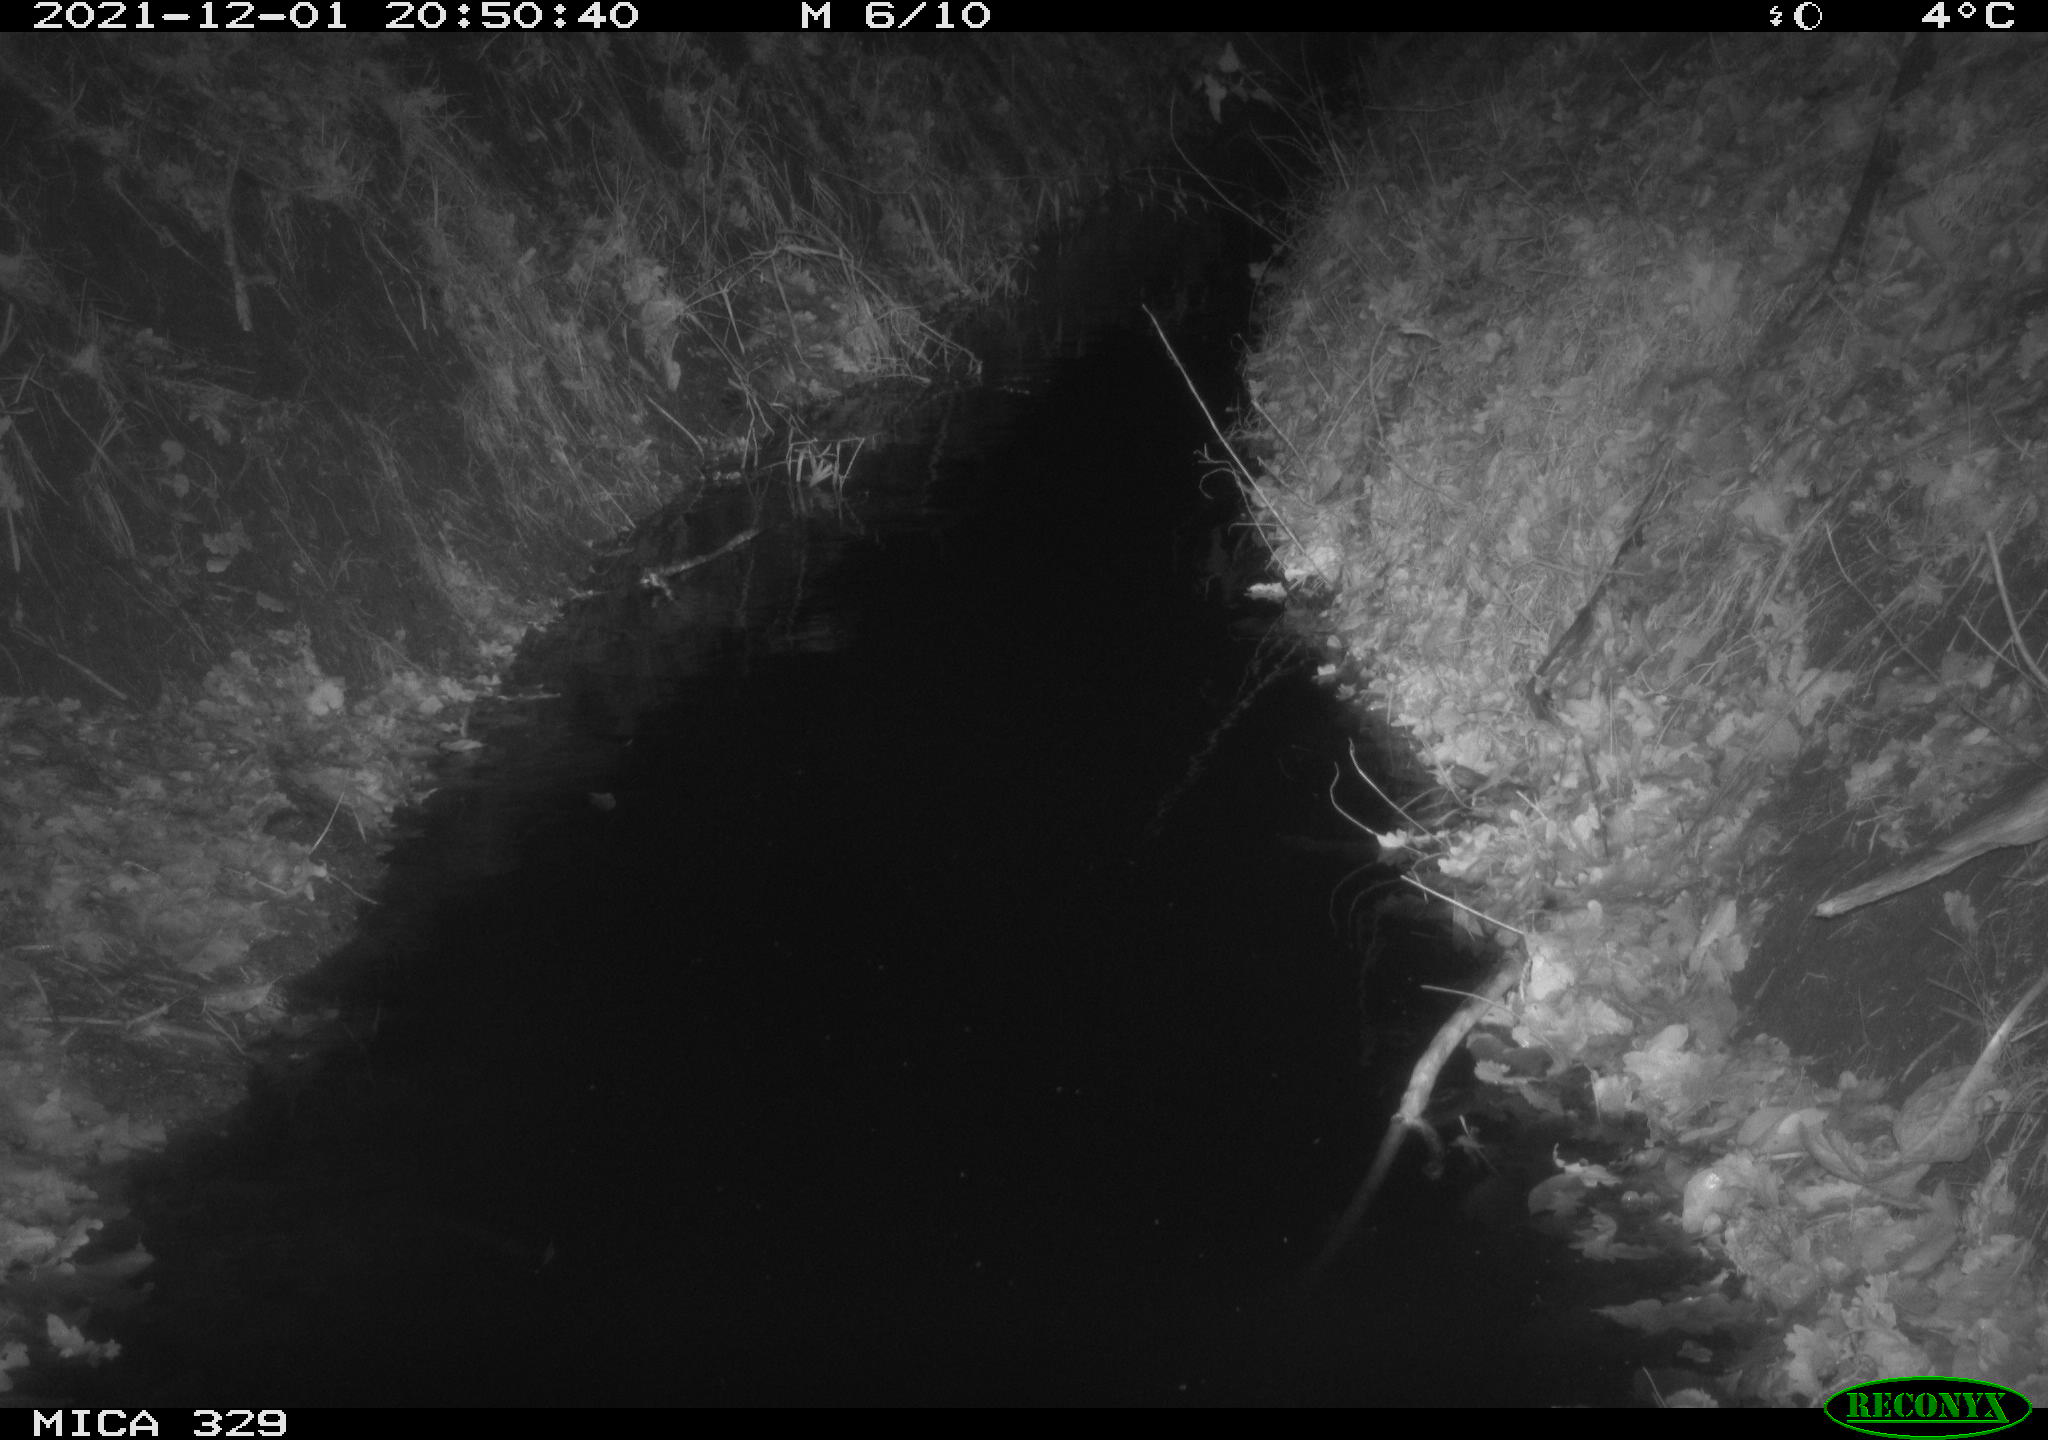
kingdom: Animalia
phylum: Chordata
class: Mammalia
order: Rodentia
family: Muridae
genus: Rattus
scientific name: Rattus norvegicus
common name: Brown rat
